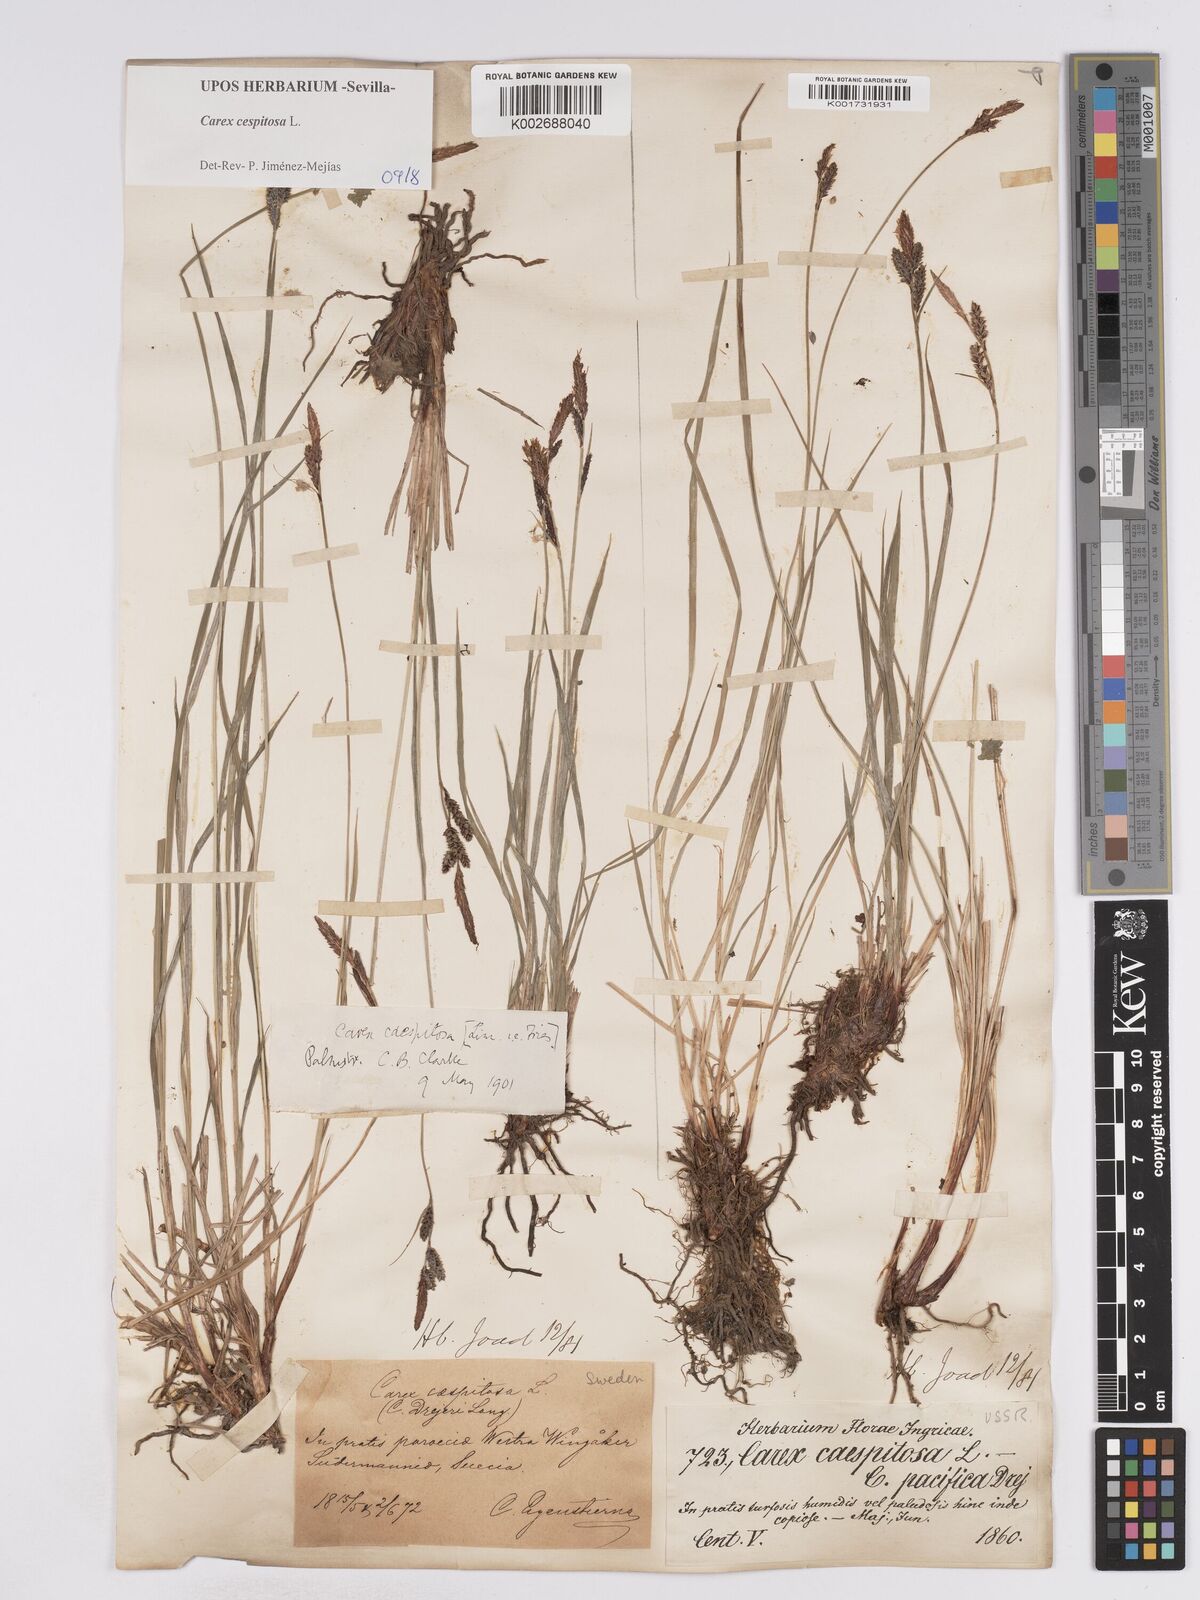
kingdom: Plantae
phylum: Tracheophyta
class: Liliopsida
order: Poales
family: Cyperaceae
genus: Carex
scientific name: Carex
